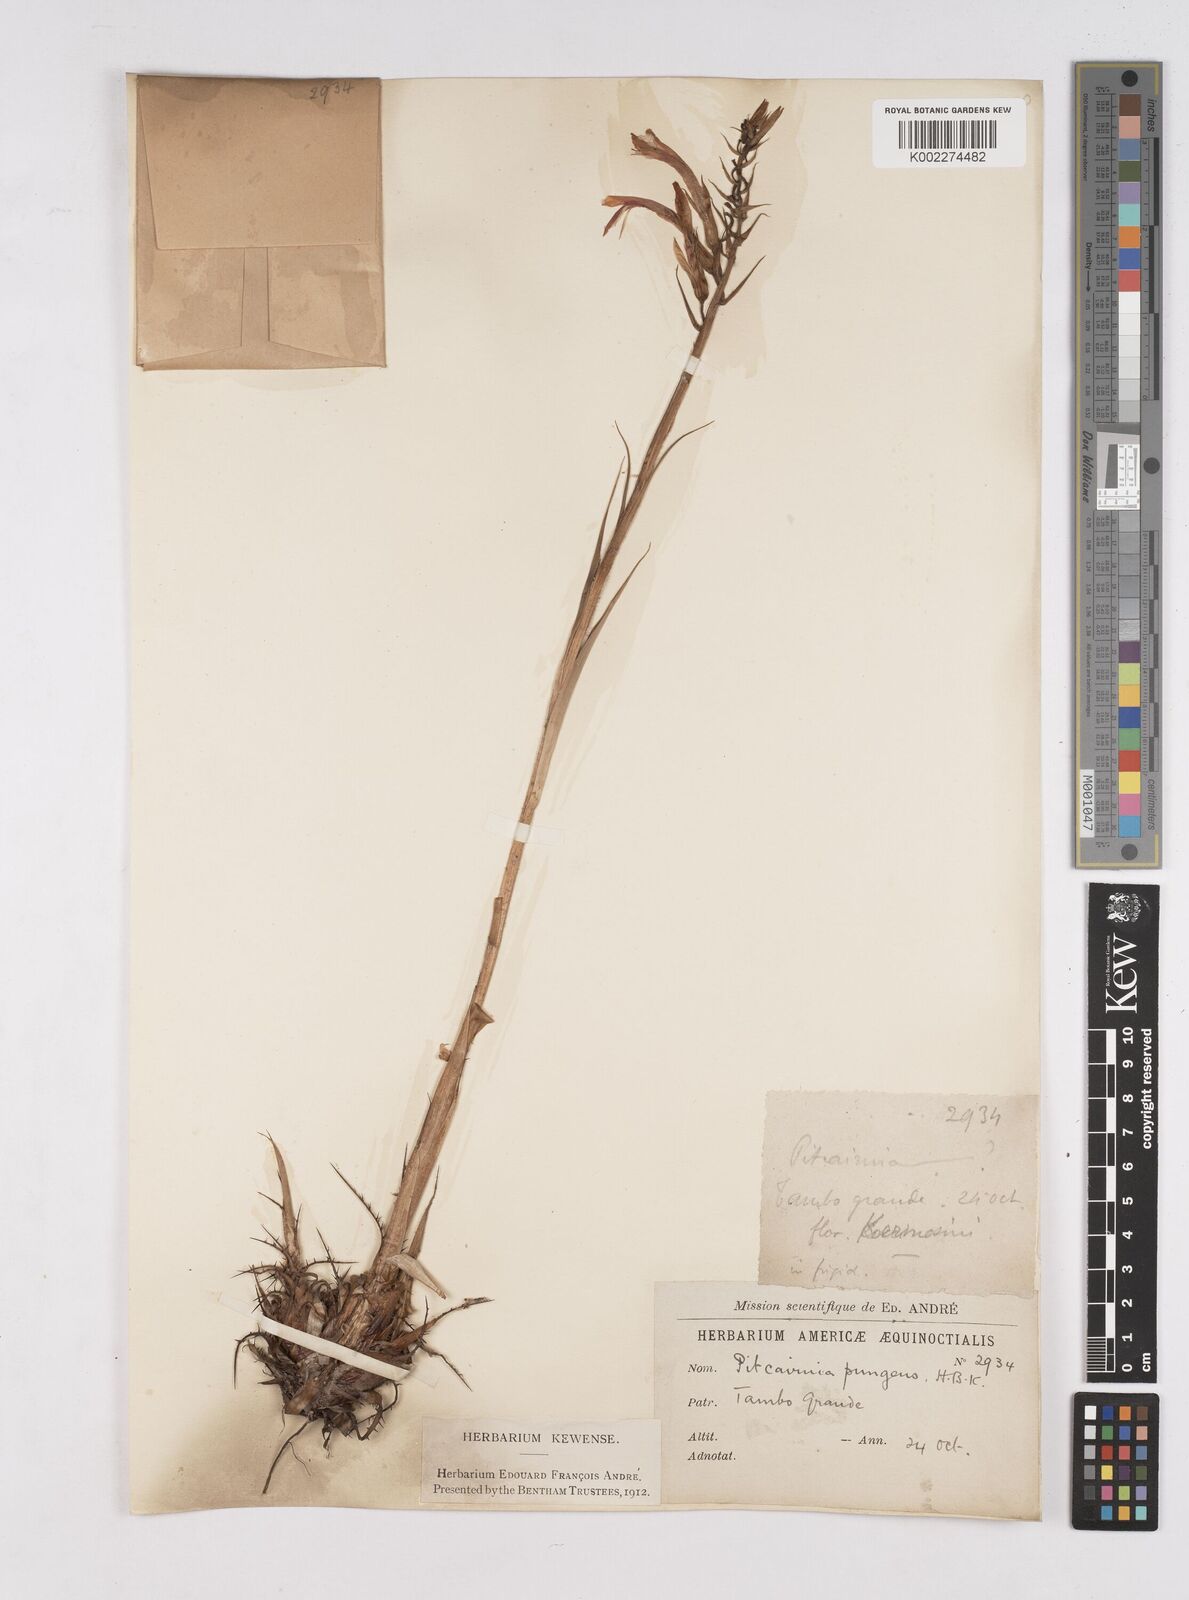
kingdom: Plantae
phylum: Tracheophyta
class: Liliopsida
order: Poales
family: Bromeliaceae
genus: Pitcairnia
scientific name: Pitcairnia pungens
